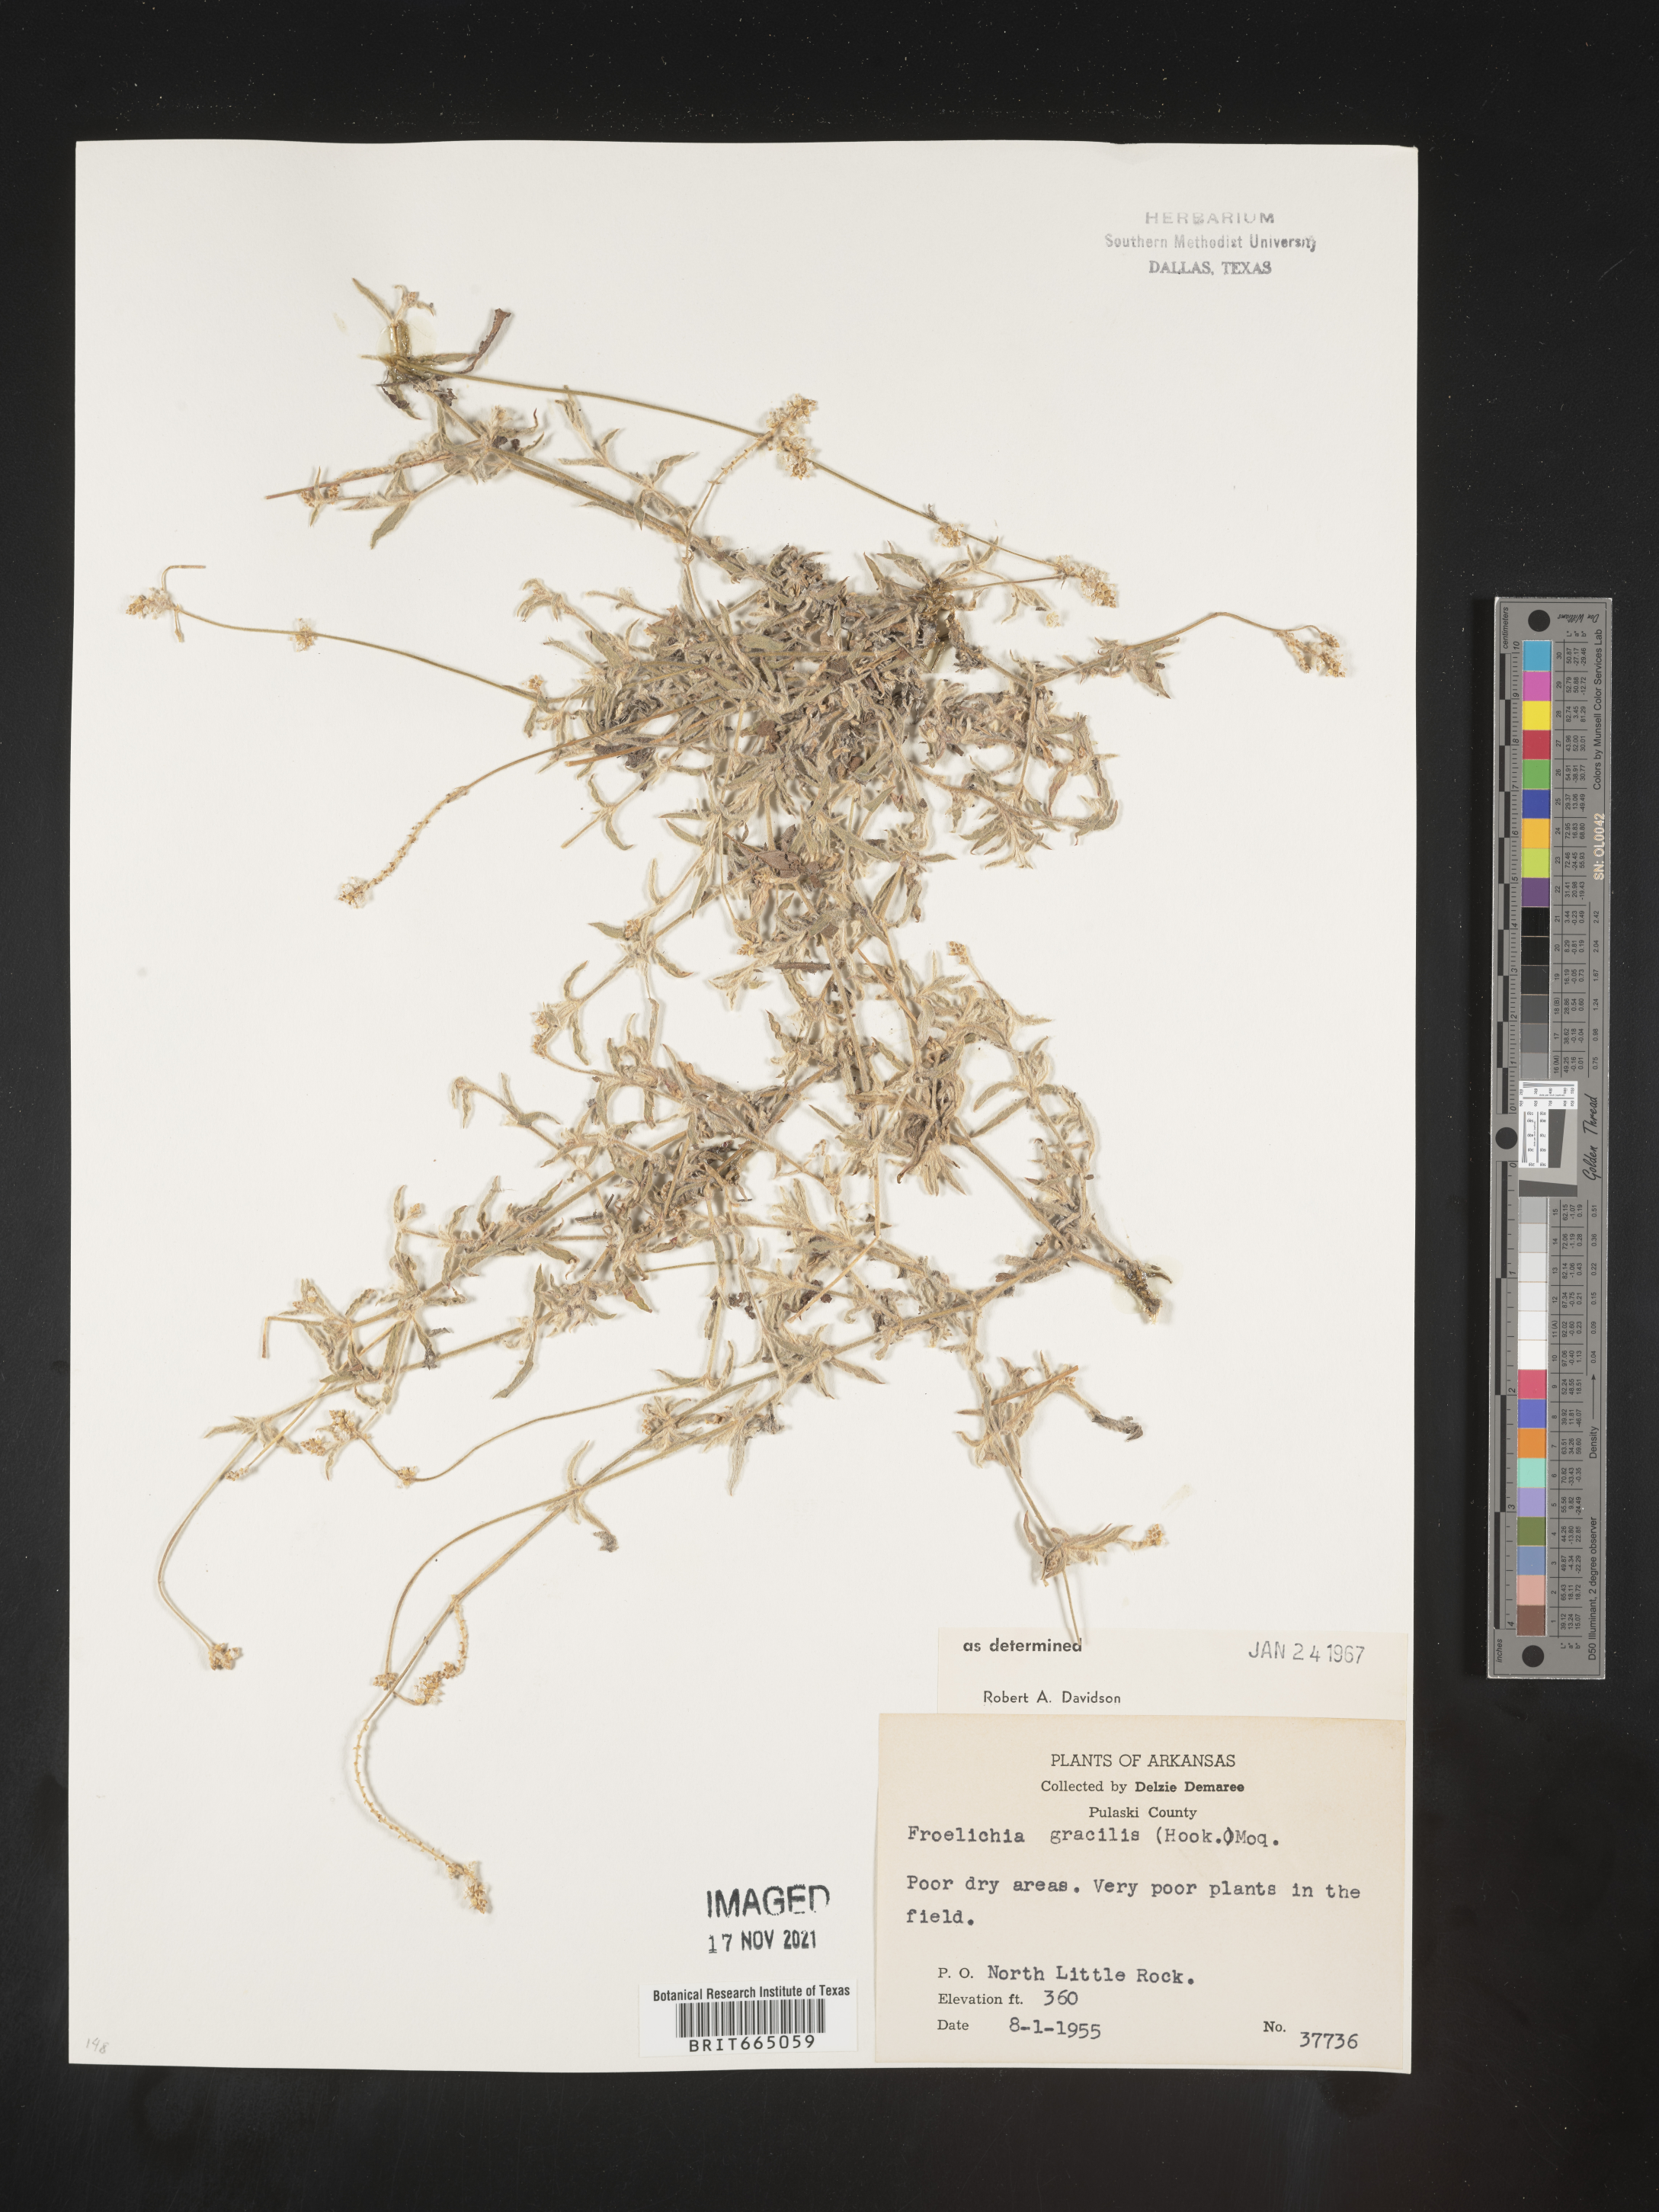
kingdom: Plantae
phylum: Tracheophyta
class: Magnoliopsida
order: Caryophyllales
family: Amaranthaceae
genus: Froelichia
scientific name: Froelichia gracilis
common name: Slender cottonweed
